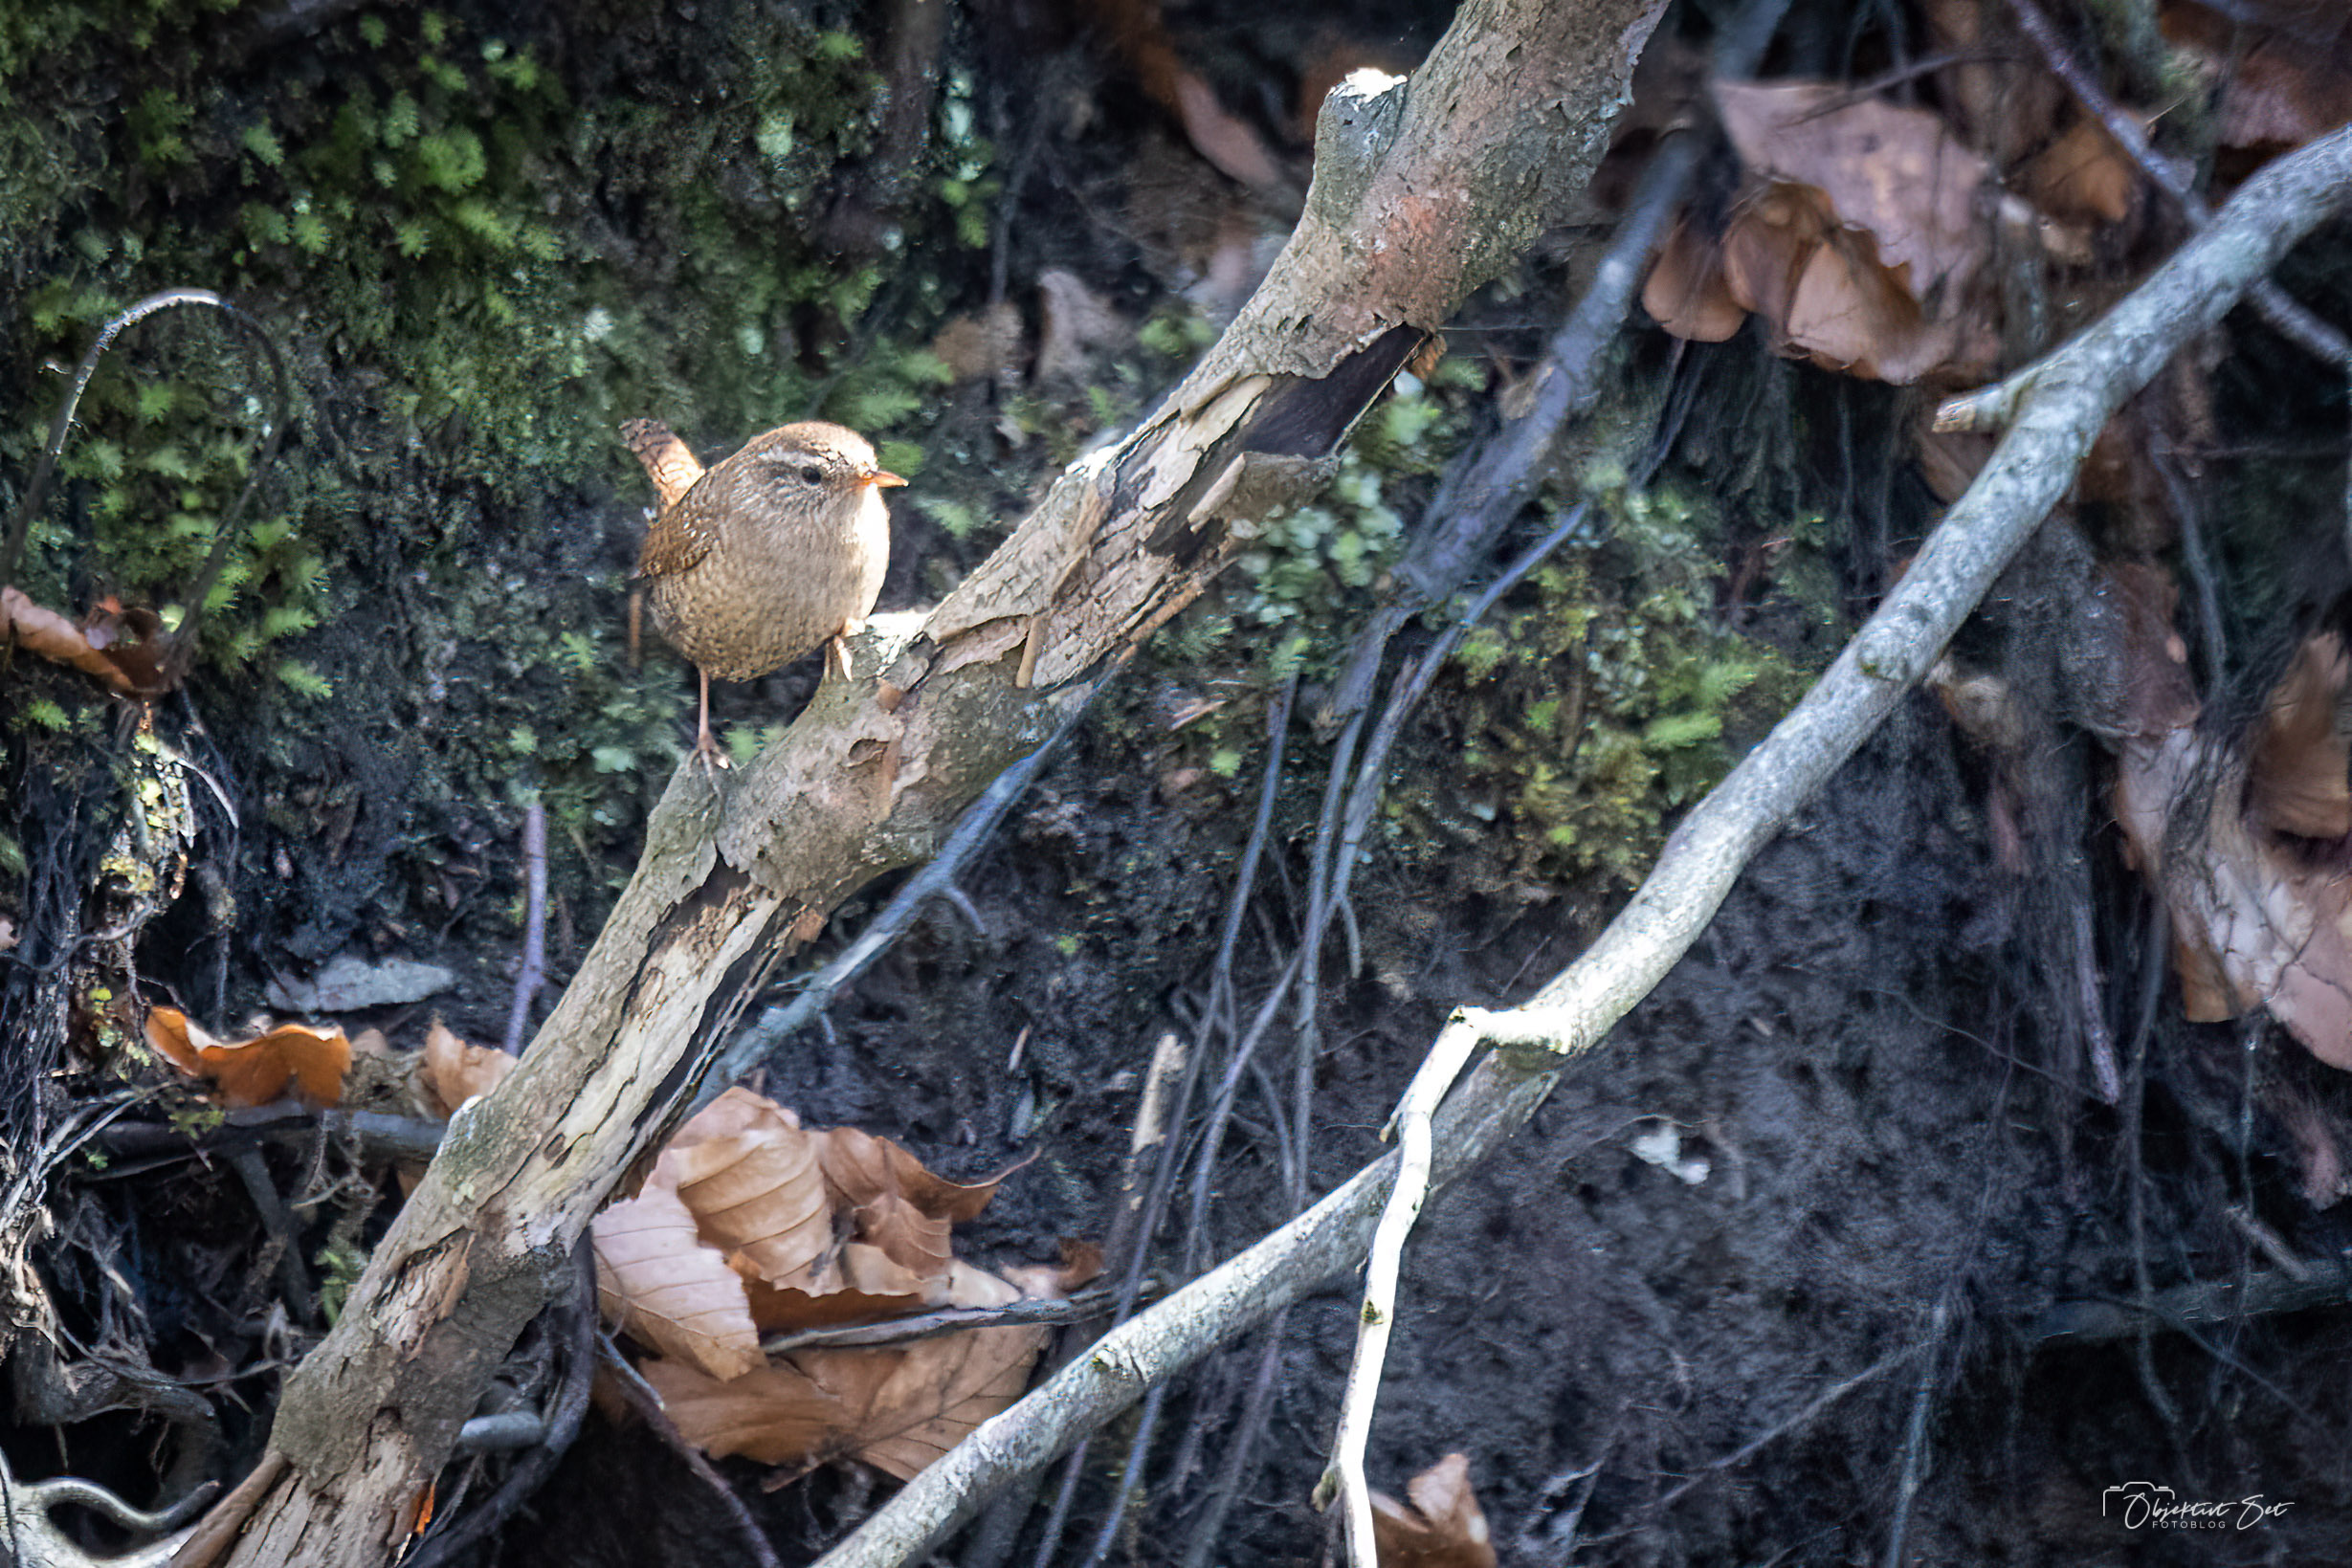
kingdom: Animalia
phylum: Chordata
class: Aves
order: Passeriformes
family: Troglodytidae
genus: Troglodytes
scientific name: Troglodytes troglodytes
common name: Gærdesmutte
